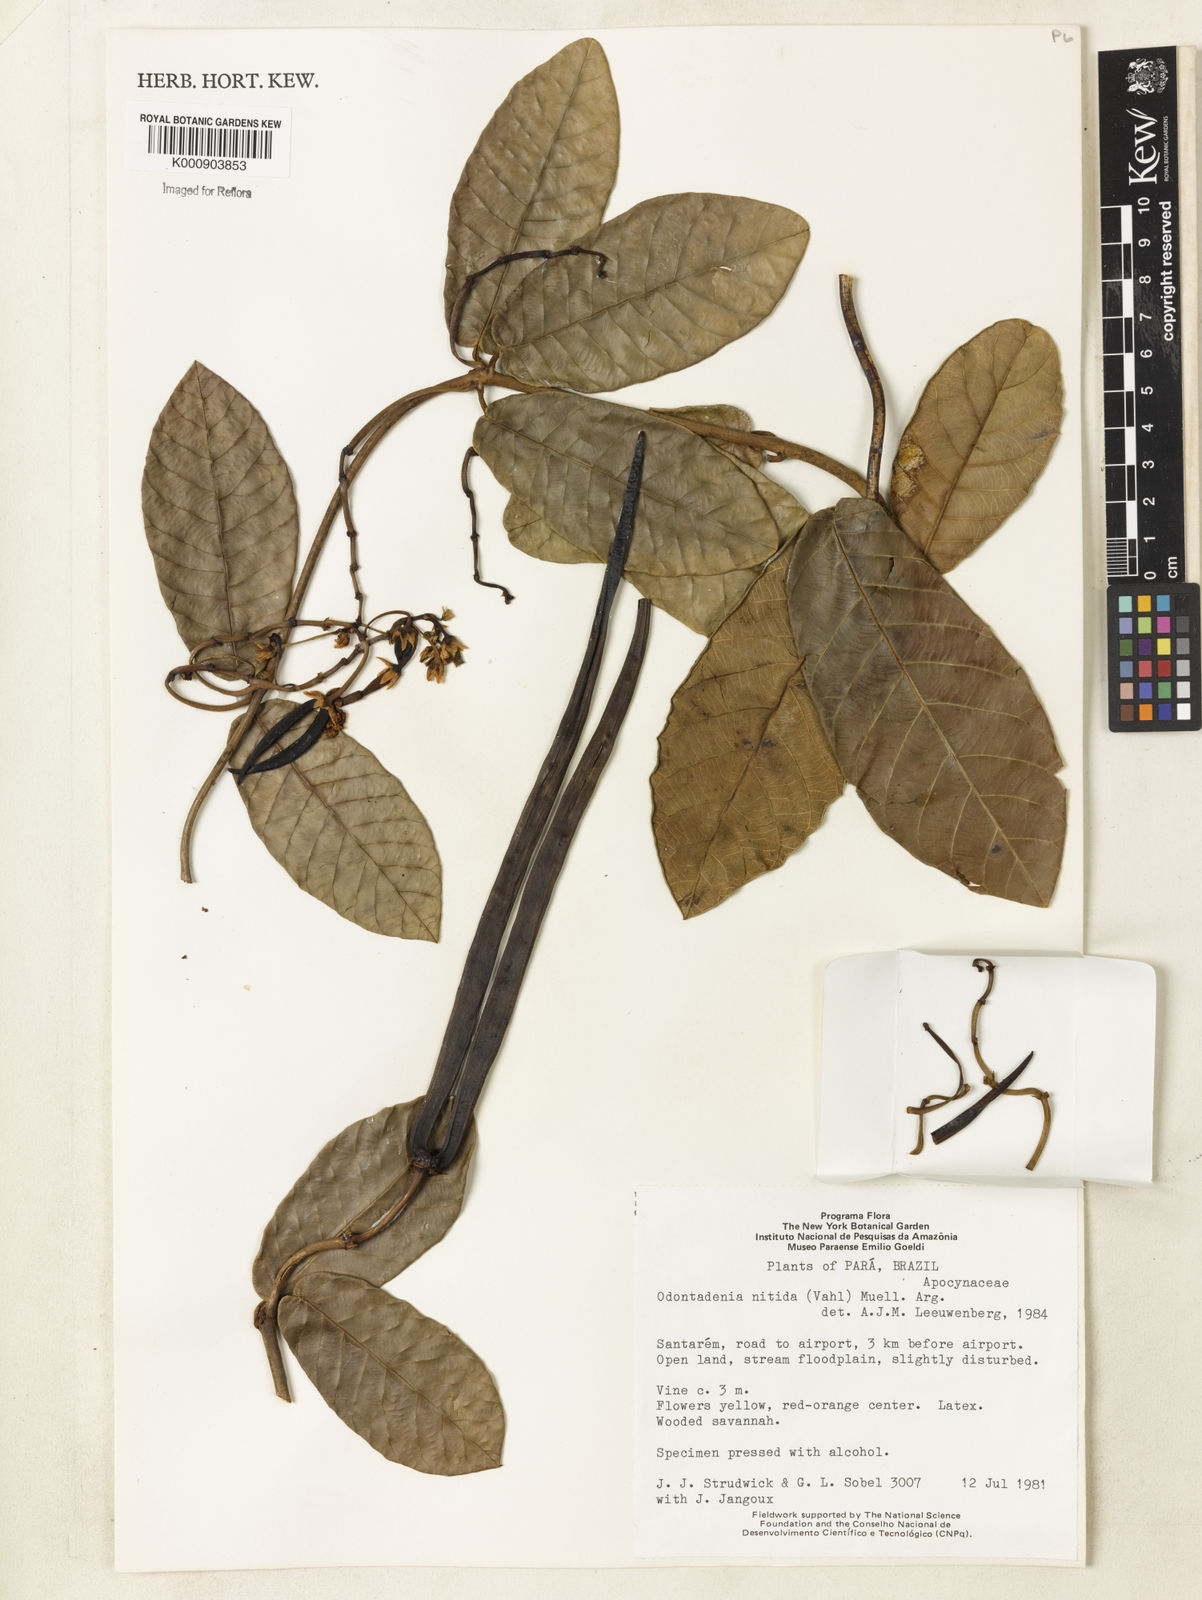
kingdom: Plantae
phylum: Tracheophyta
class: Magnoliopsida
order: Gentianales
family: Apocynaceae
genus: Odontadenia
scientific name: Odontadenia
